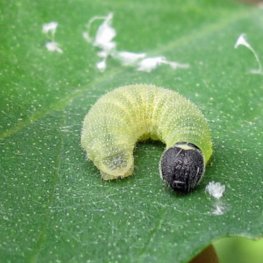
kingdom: Animalia
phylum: Arthropoda
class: Insecta
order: Lepidoptera
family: Hesperiidae
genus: Pholisora
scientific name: Pholisora catullus
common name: Common Sootywing
